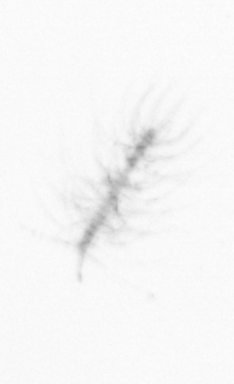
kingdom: Chromista
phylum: Ochrophyta
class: Bacillariophyceae
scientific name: Bacillariophyceae
